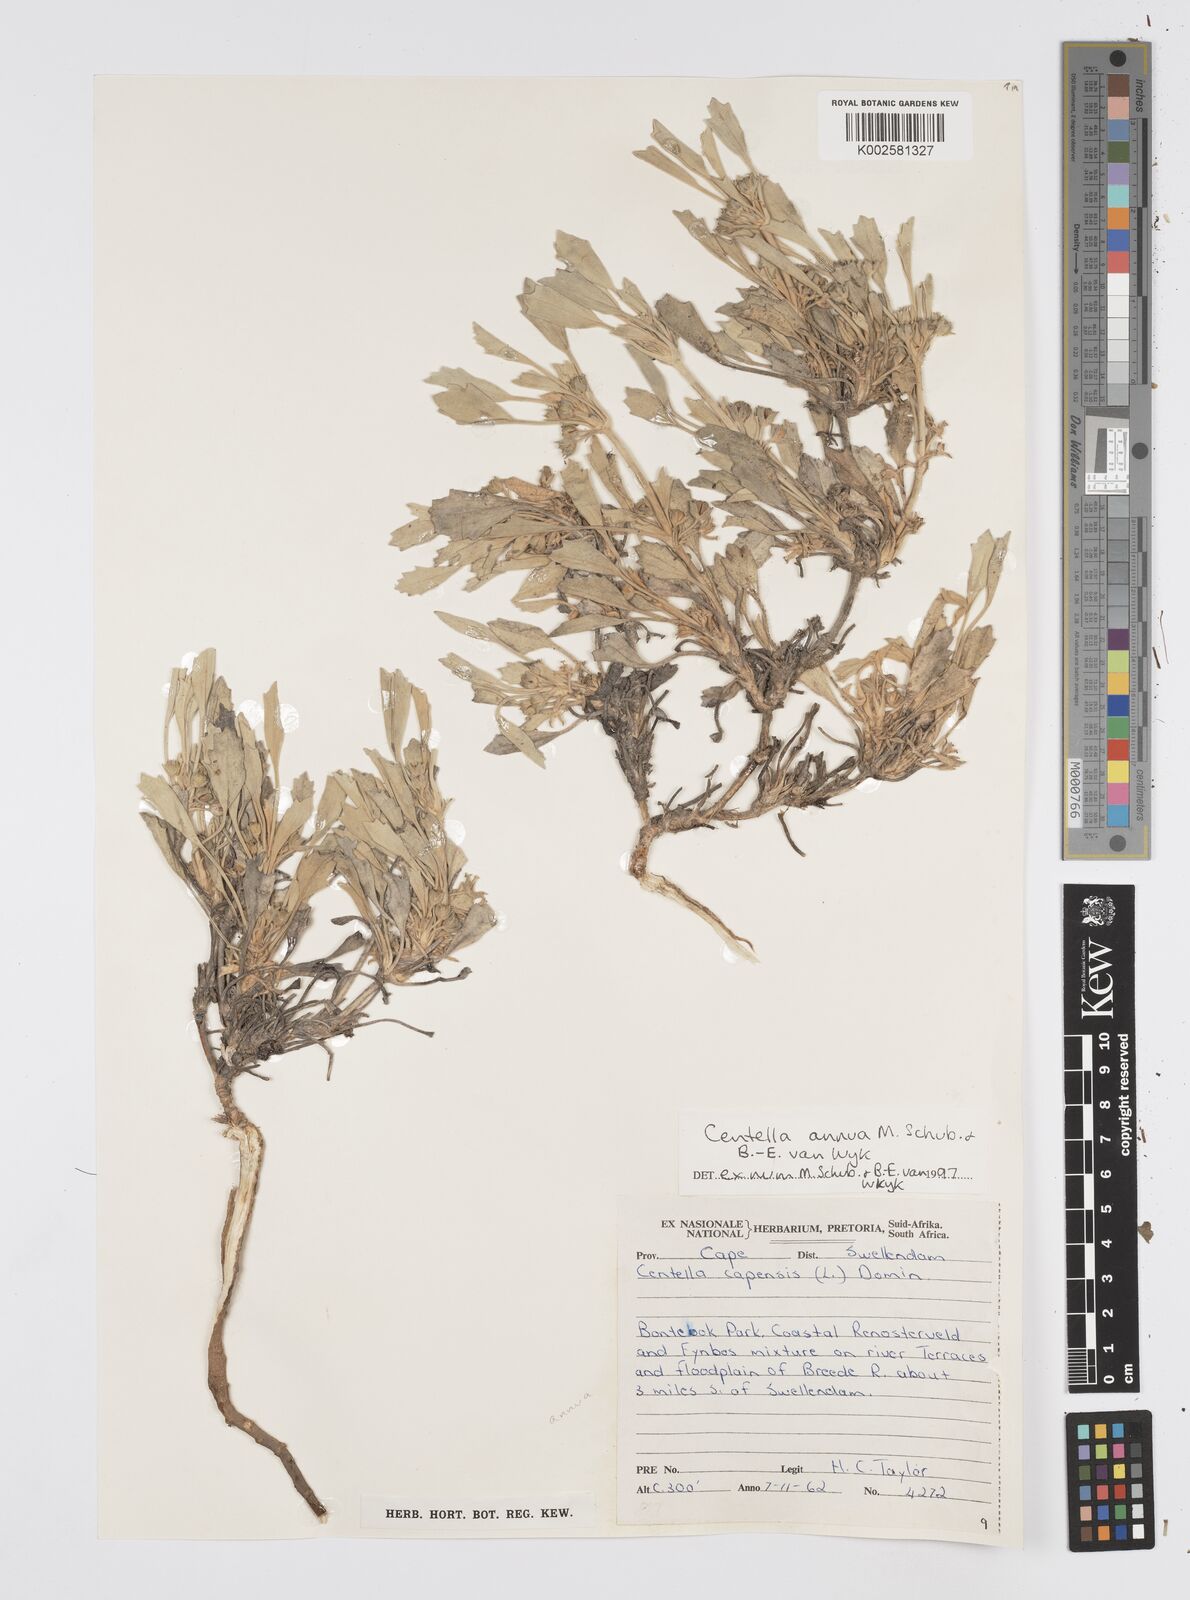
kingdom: Plantae
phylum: Tracheophyta
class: Magnoliopsida
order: Apiales
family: Apiaceae
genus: Centella
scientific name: Centella annua
